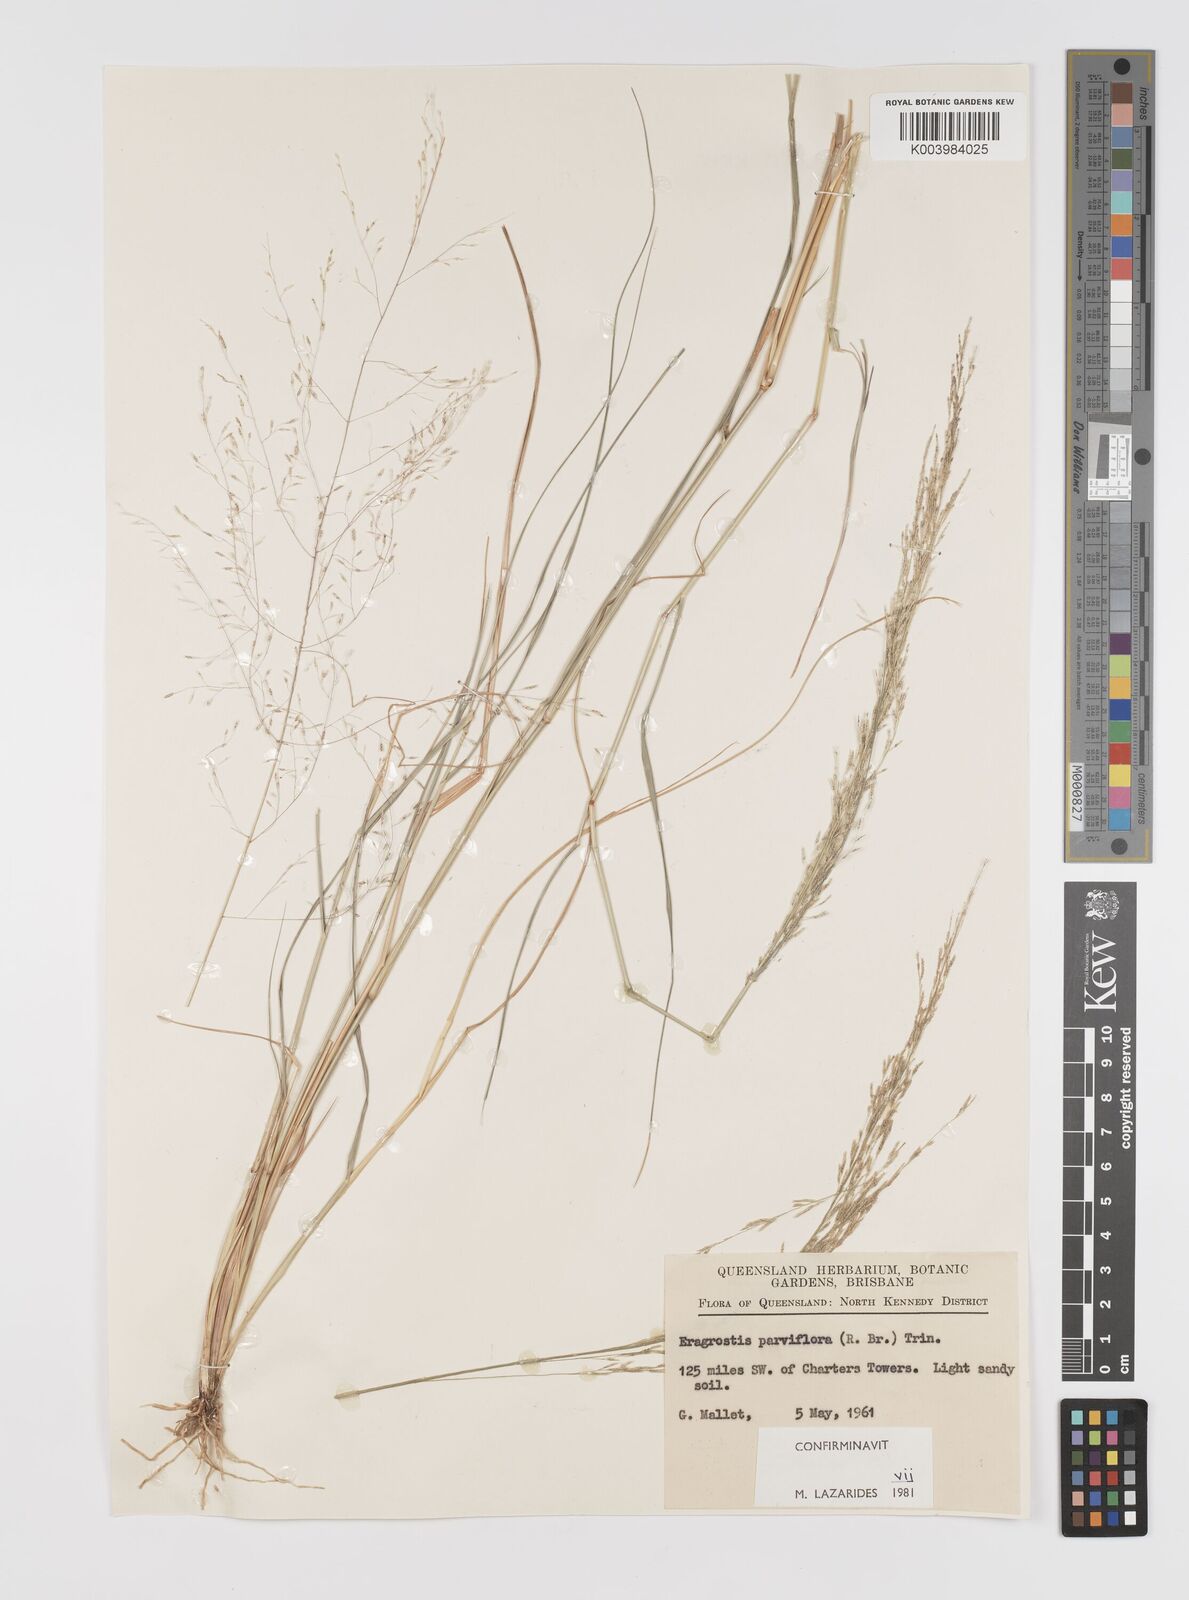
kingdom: Plantae
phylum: Tracheophyta
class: Liliopsida
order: Poales
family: Poaceae
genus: Eragrostis
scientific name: Eragrostis parviflora
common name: Weeping love-grass
